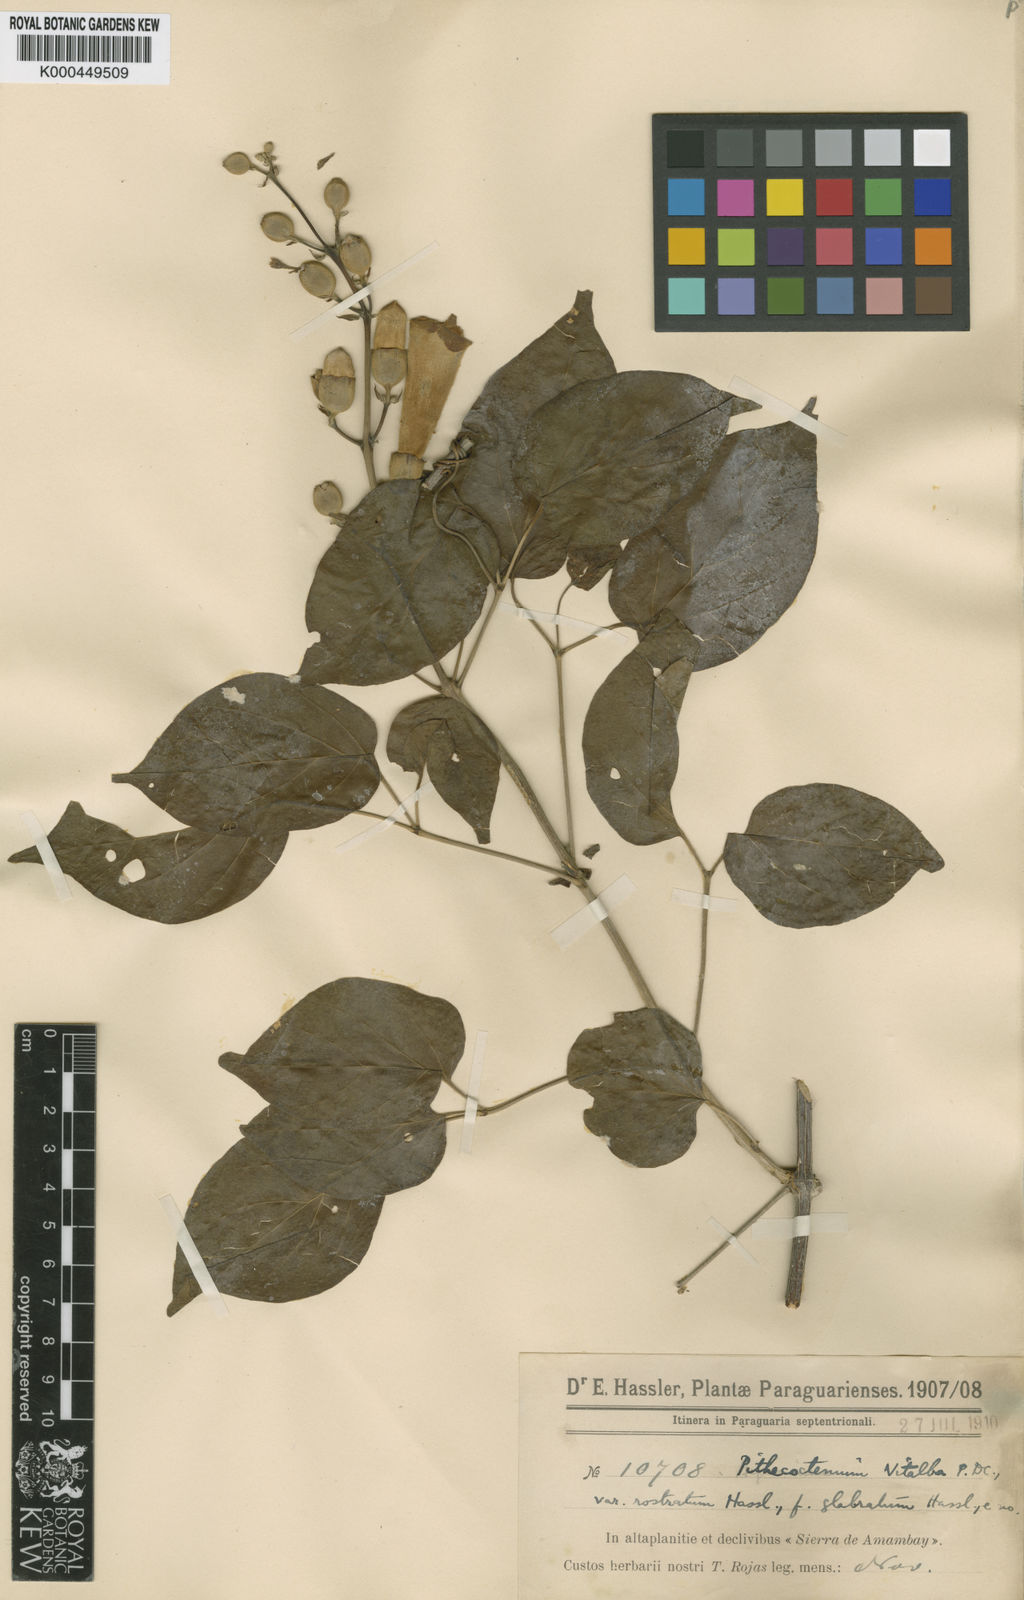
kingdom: Plantae
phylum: Tracheophyta
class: Magnoliopsida
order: Lamiales
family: Bignoniaceae
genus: Amphilophium
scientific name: Amphilophium crucigerum
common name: Monkey comb
